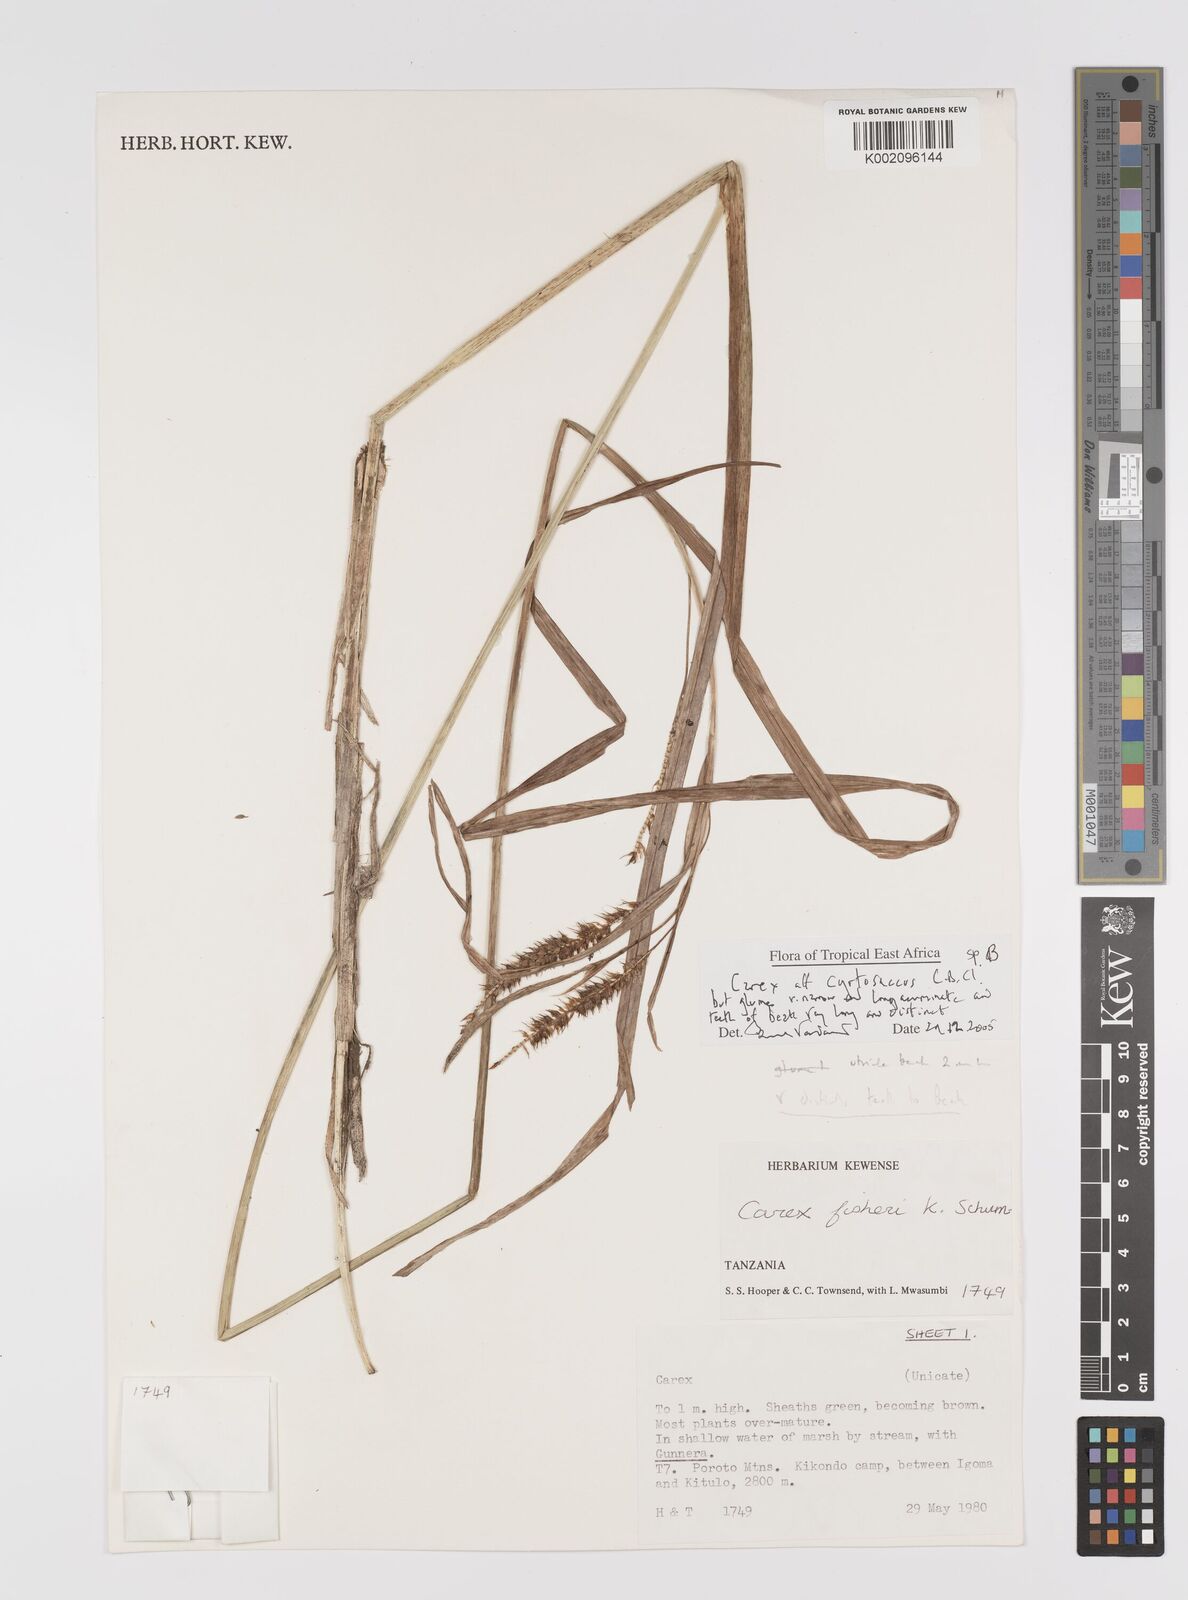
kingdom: Plantae
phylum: Tracheophyta
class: Liliopsida
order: Poales
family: Cyperaceae
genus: Carex
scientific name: Carex
